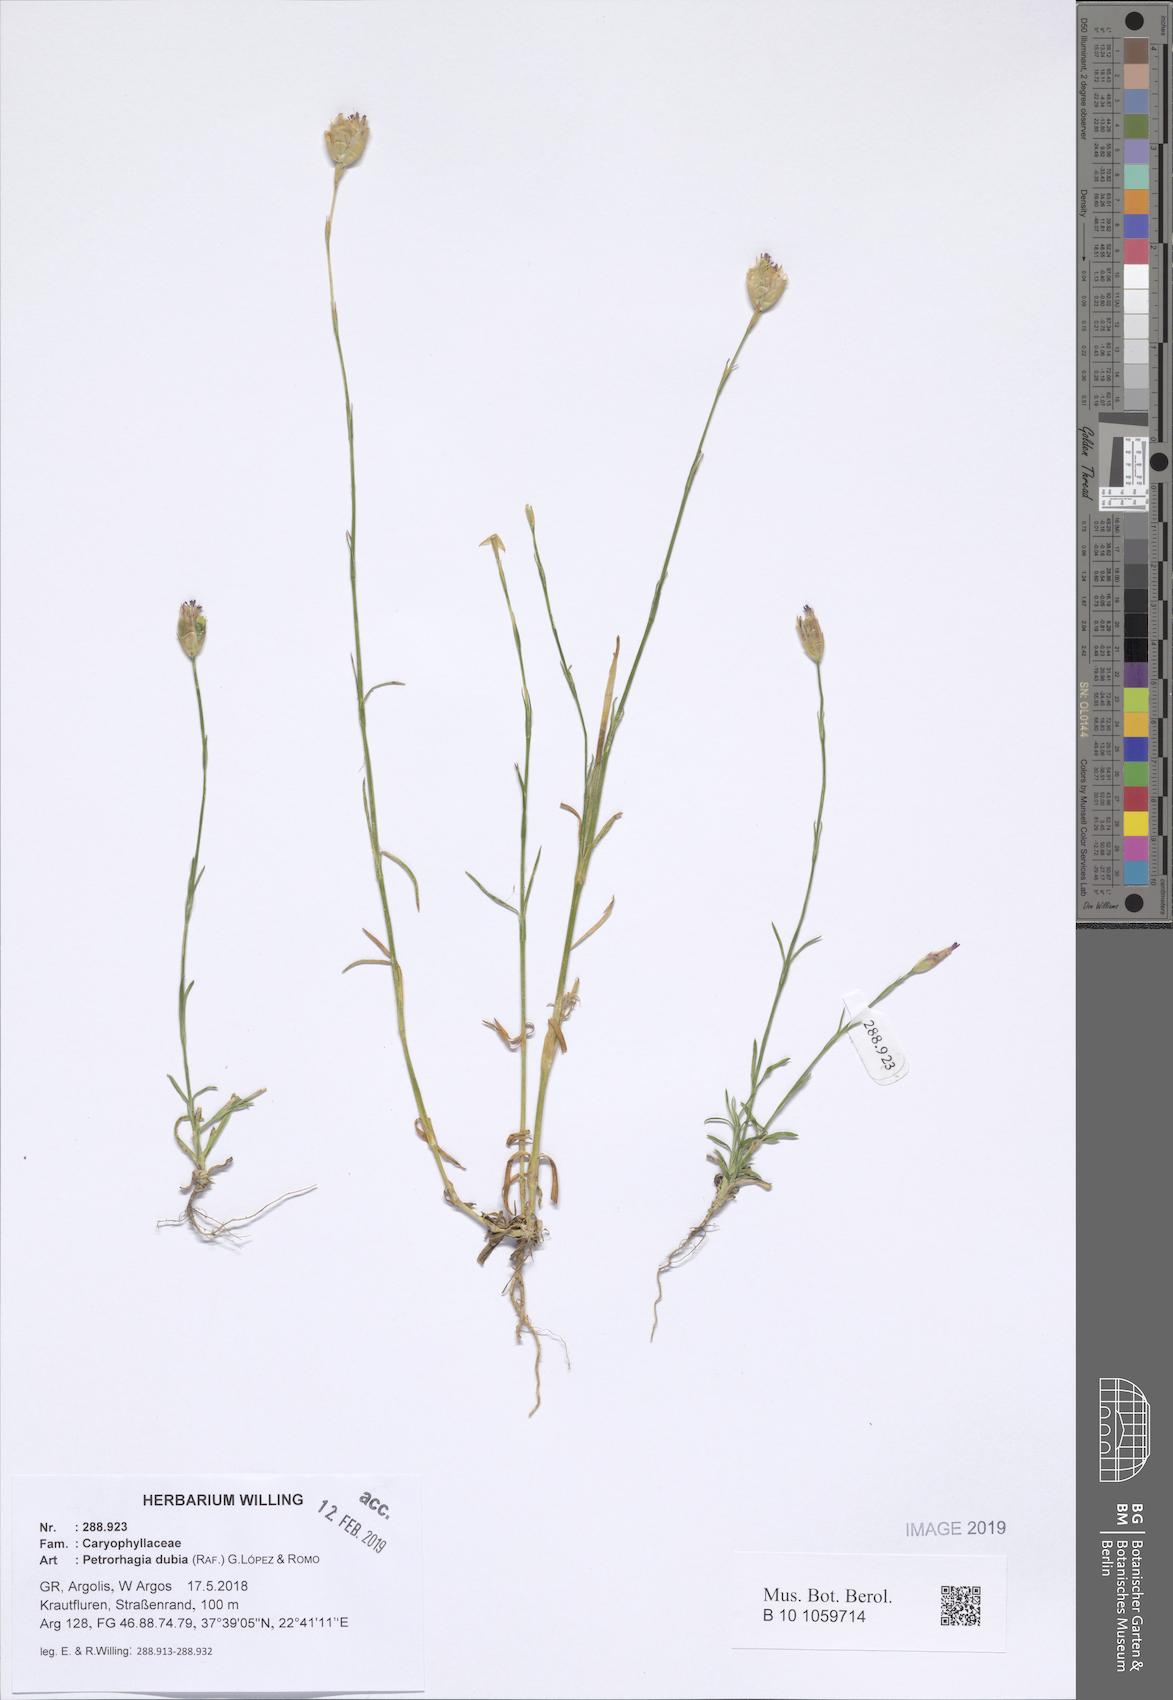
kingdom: Plantae
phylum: Tracheophyta
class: Magnoliopsida
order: Caryophyllales
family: Caryophyllaceae
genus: Petrorhagia
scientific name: Petrorhagia dubia
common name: Hairypink
